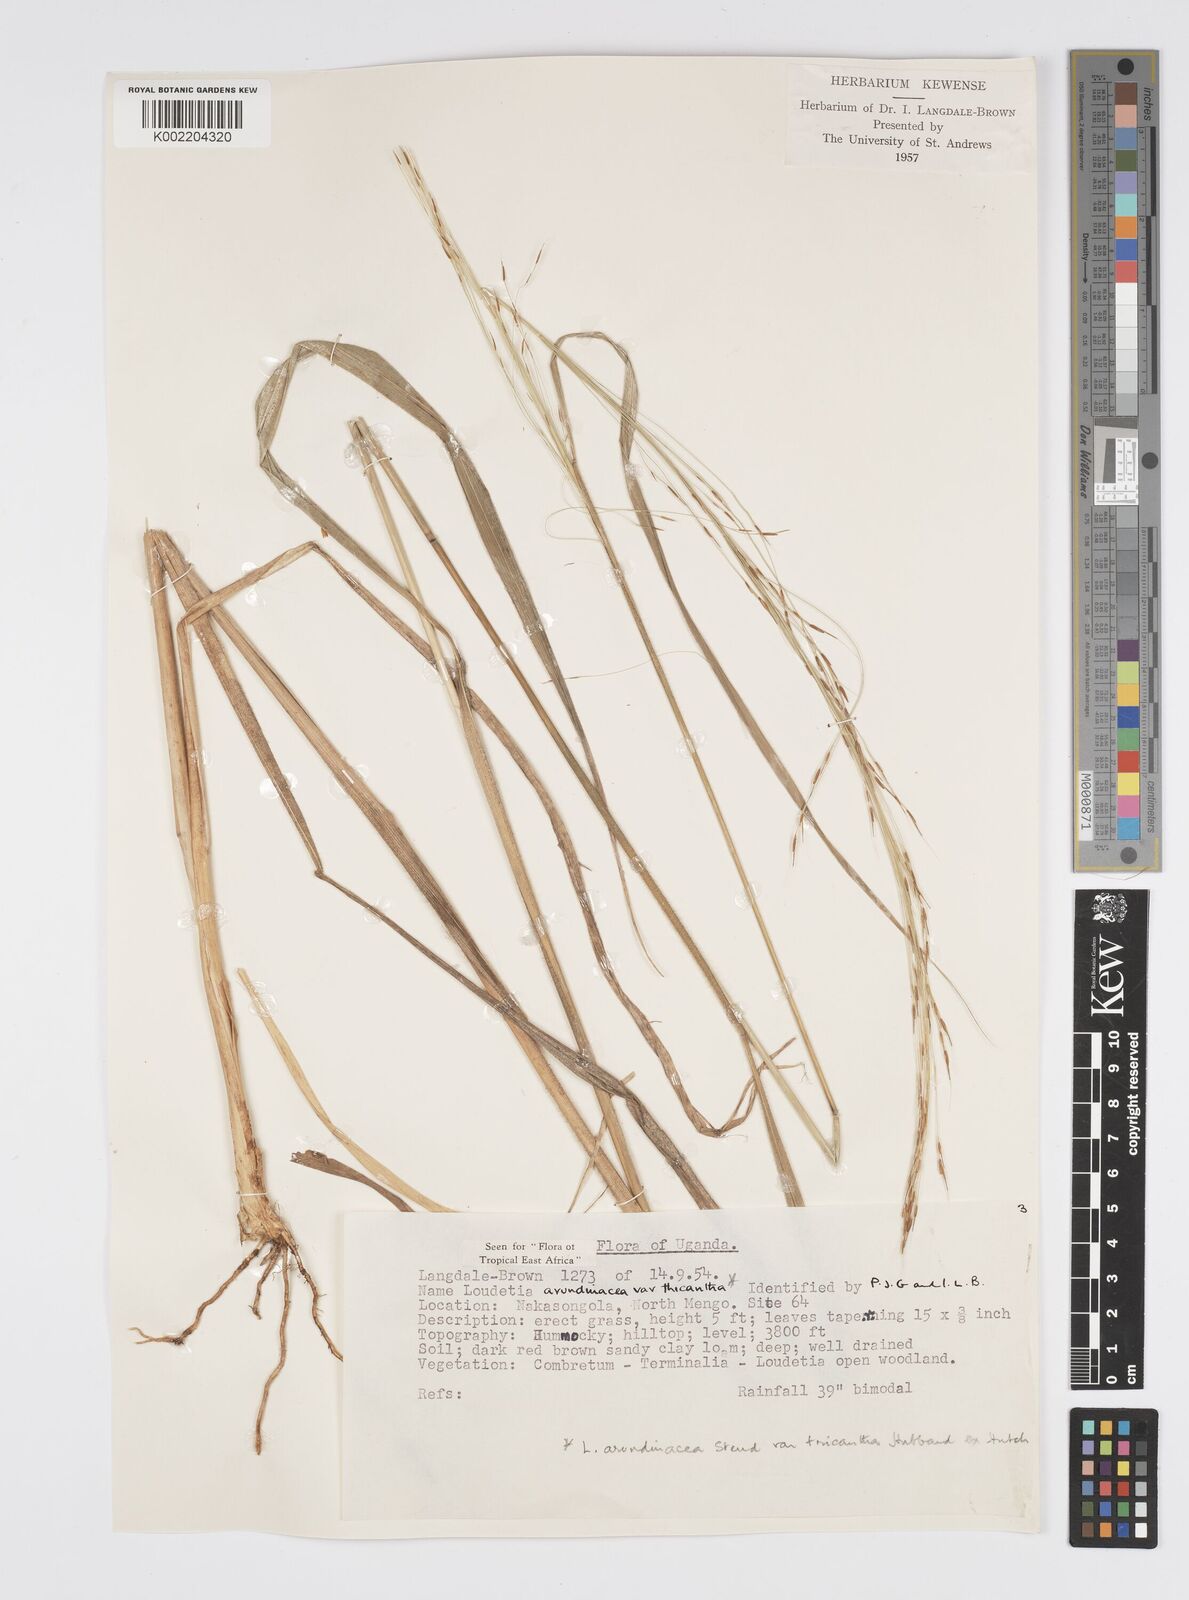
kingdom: Plantae
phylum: Tracheophyta
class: Liliopsida
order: Poales
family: Poaceae
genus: Loudetia
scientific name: Loudetia arundinacea
